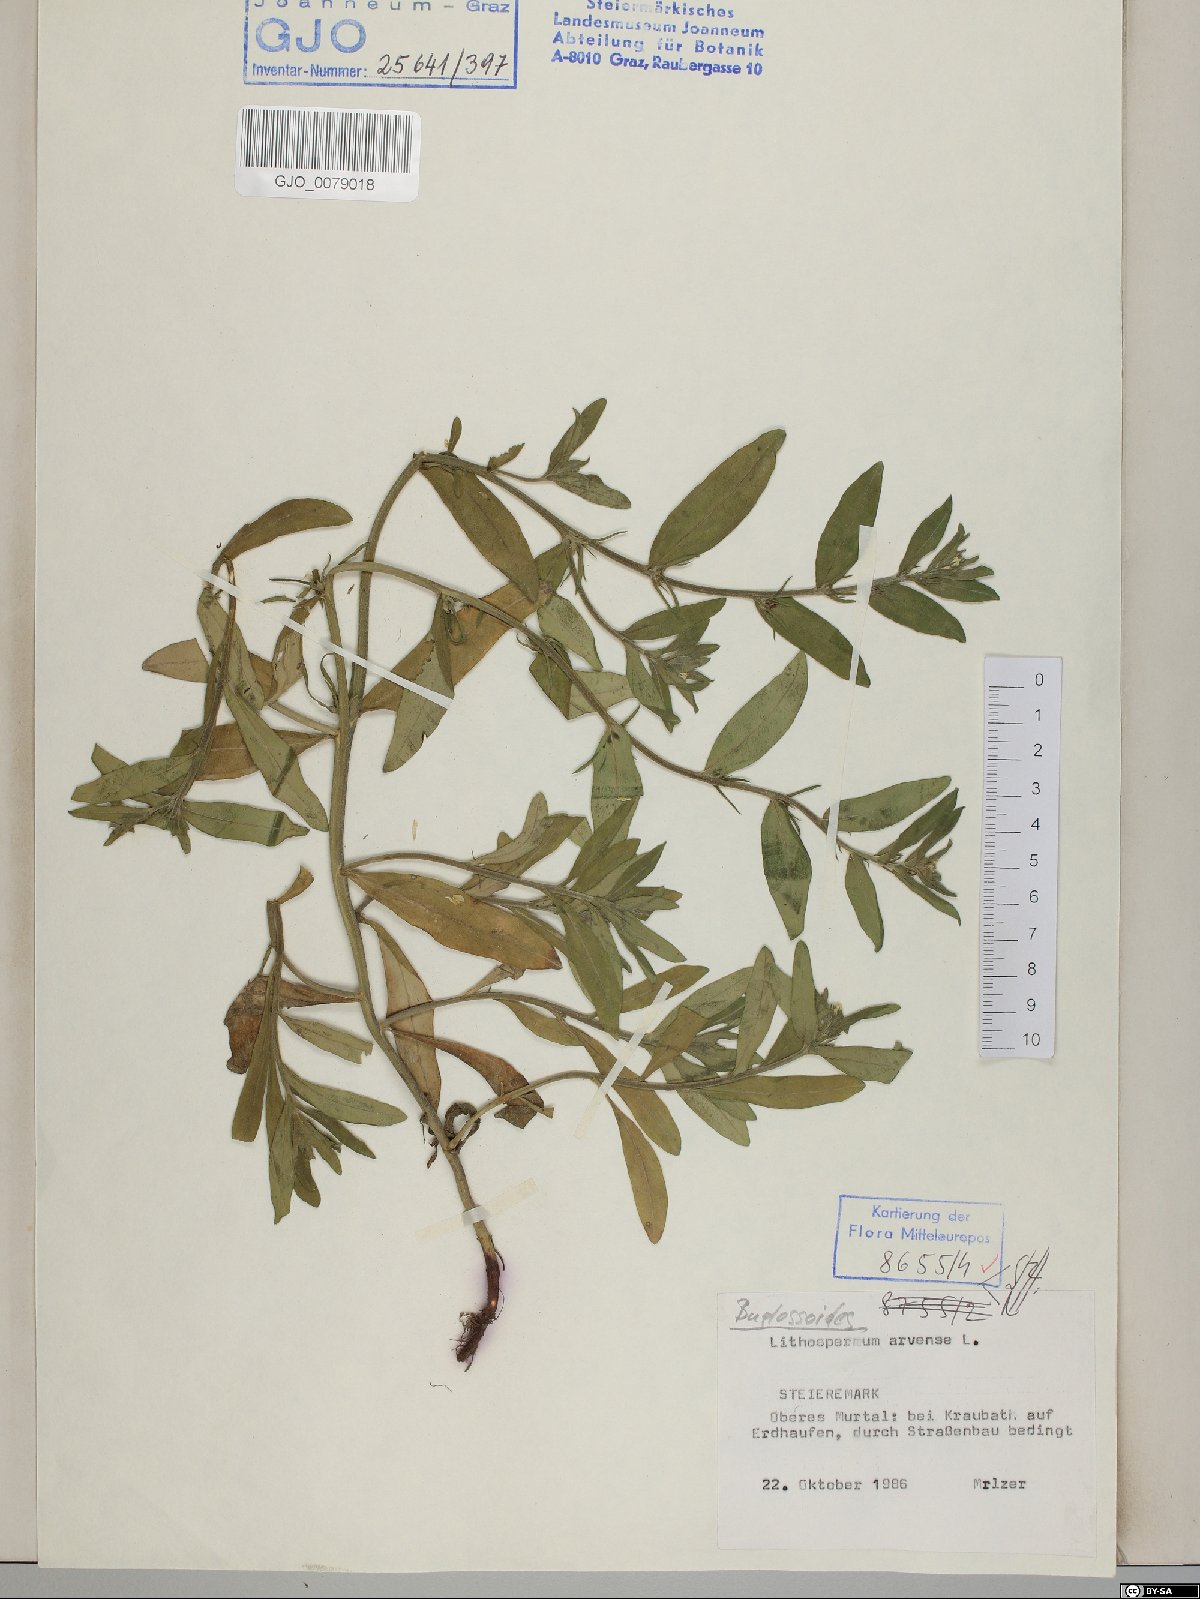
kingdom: Plantae
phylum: Tracheophyta
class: Magnoliopsida
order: Boraginales
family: Boraginaceae
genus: Buglossoides
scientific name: Buglossoides arvensis
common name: Corn gromwell
